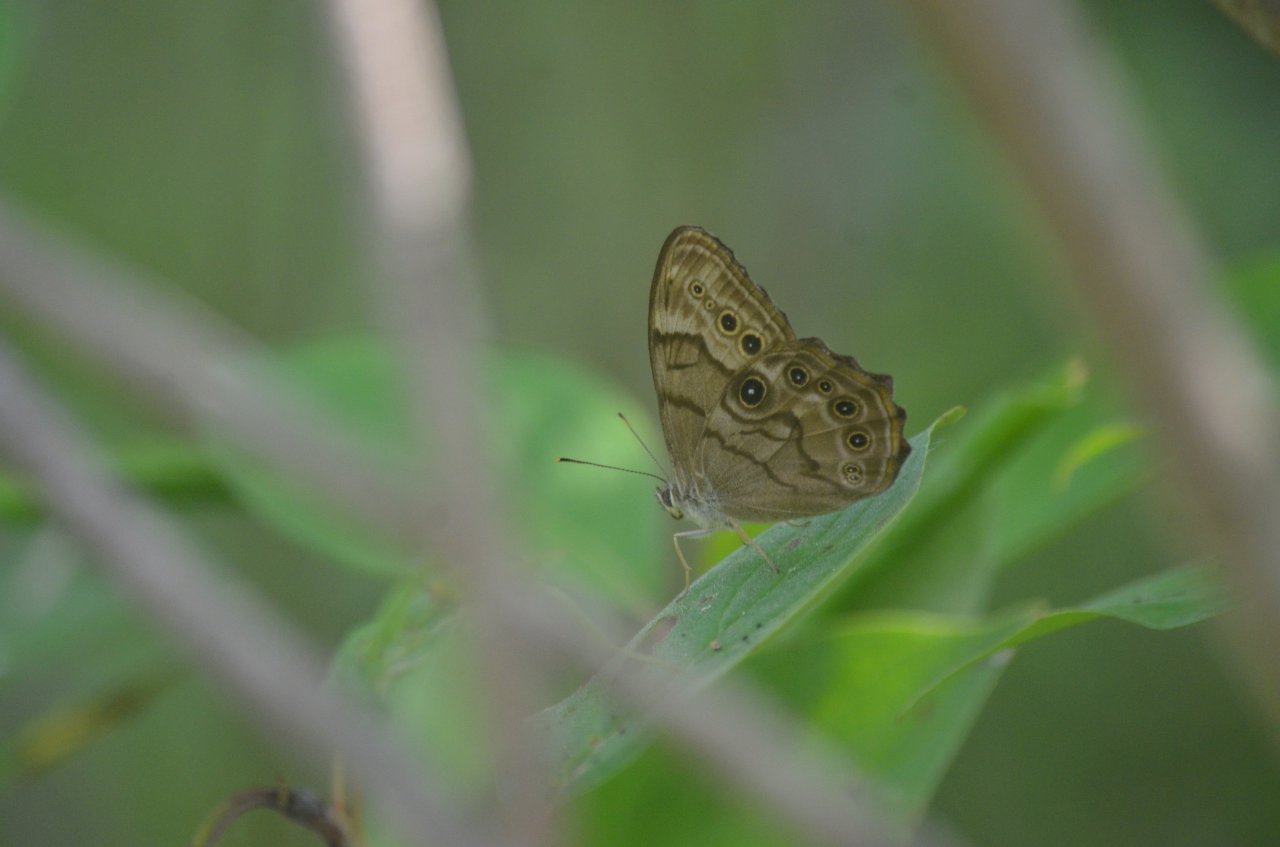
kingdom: Animalia
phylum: Arthropoda
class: Insecta
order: Lepidoptera
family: Nymphalidae
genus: Lethe
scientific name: Lethe anthedon
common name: Northern Pearly-Eye
